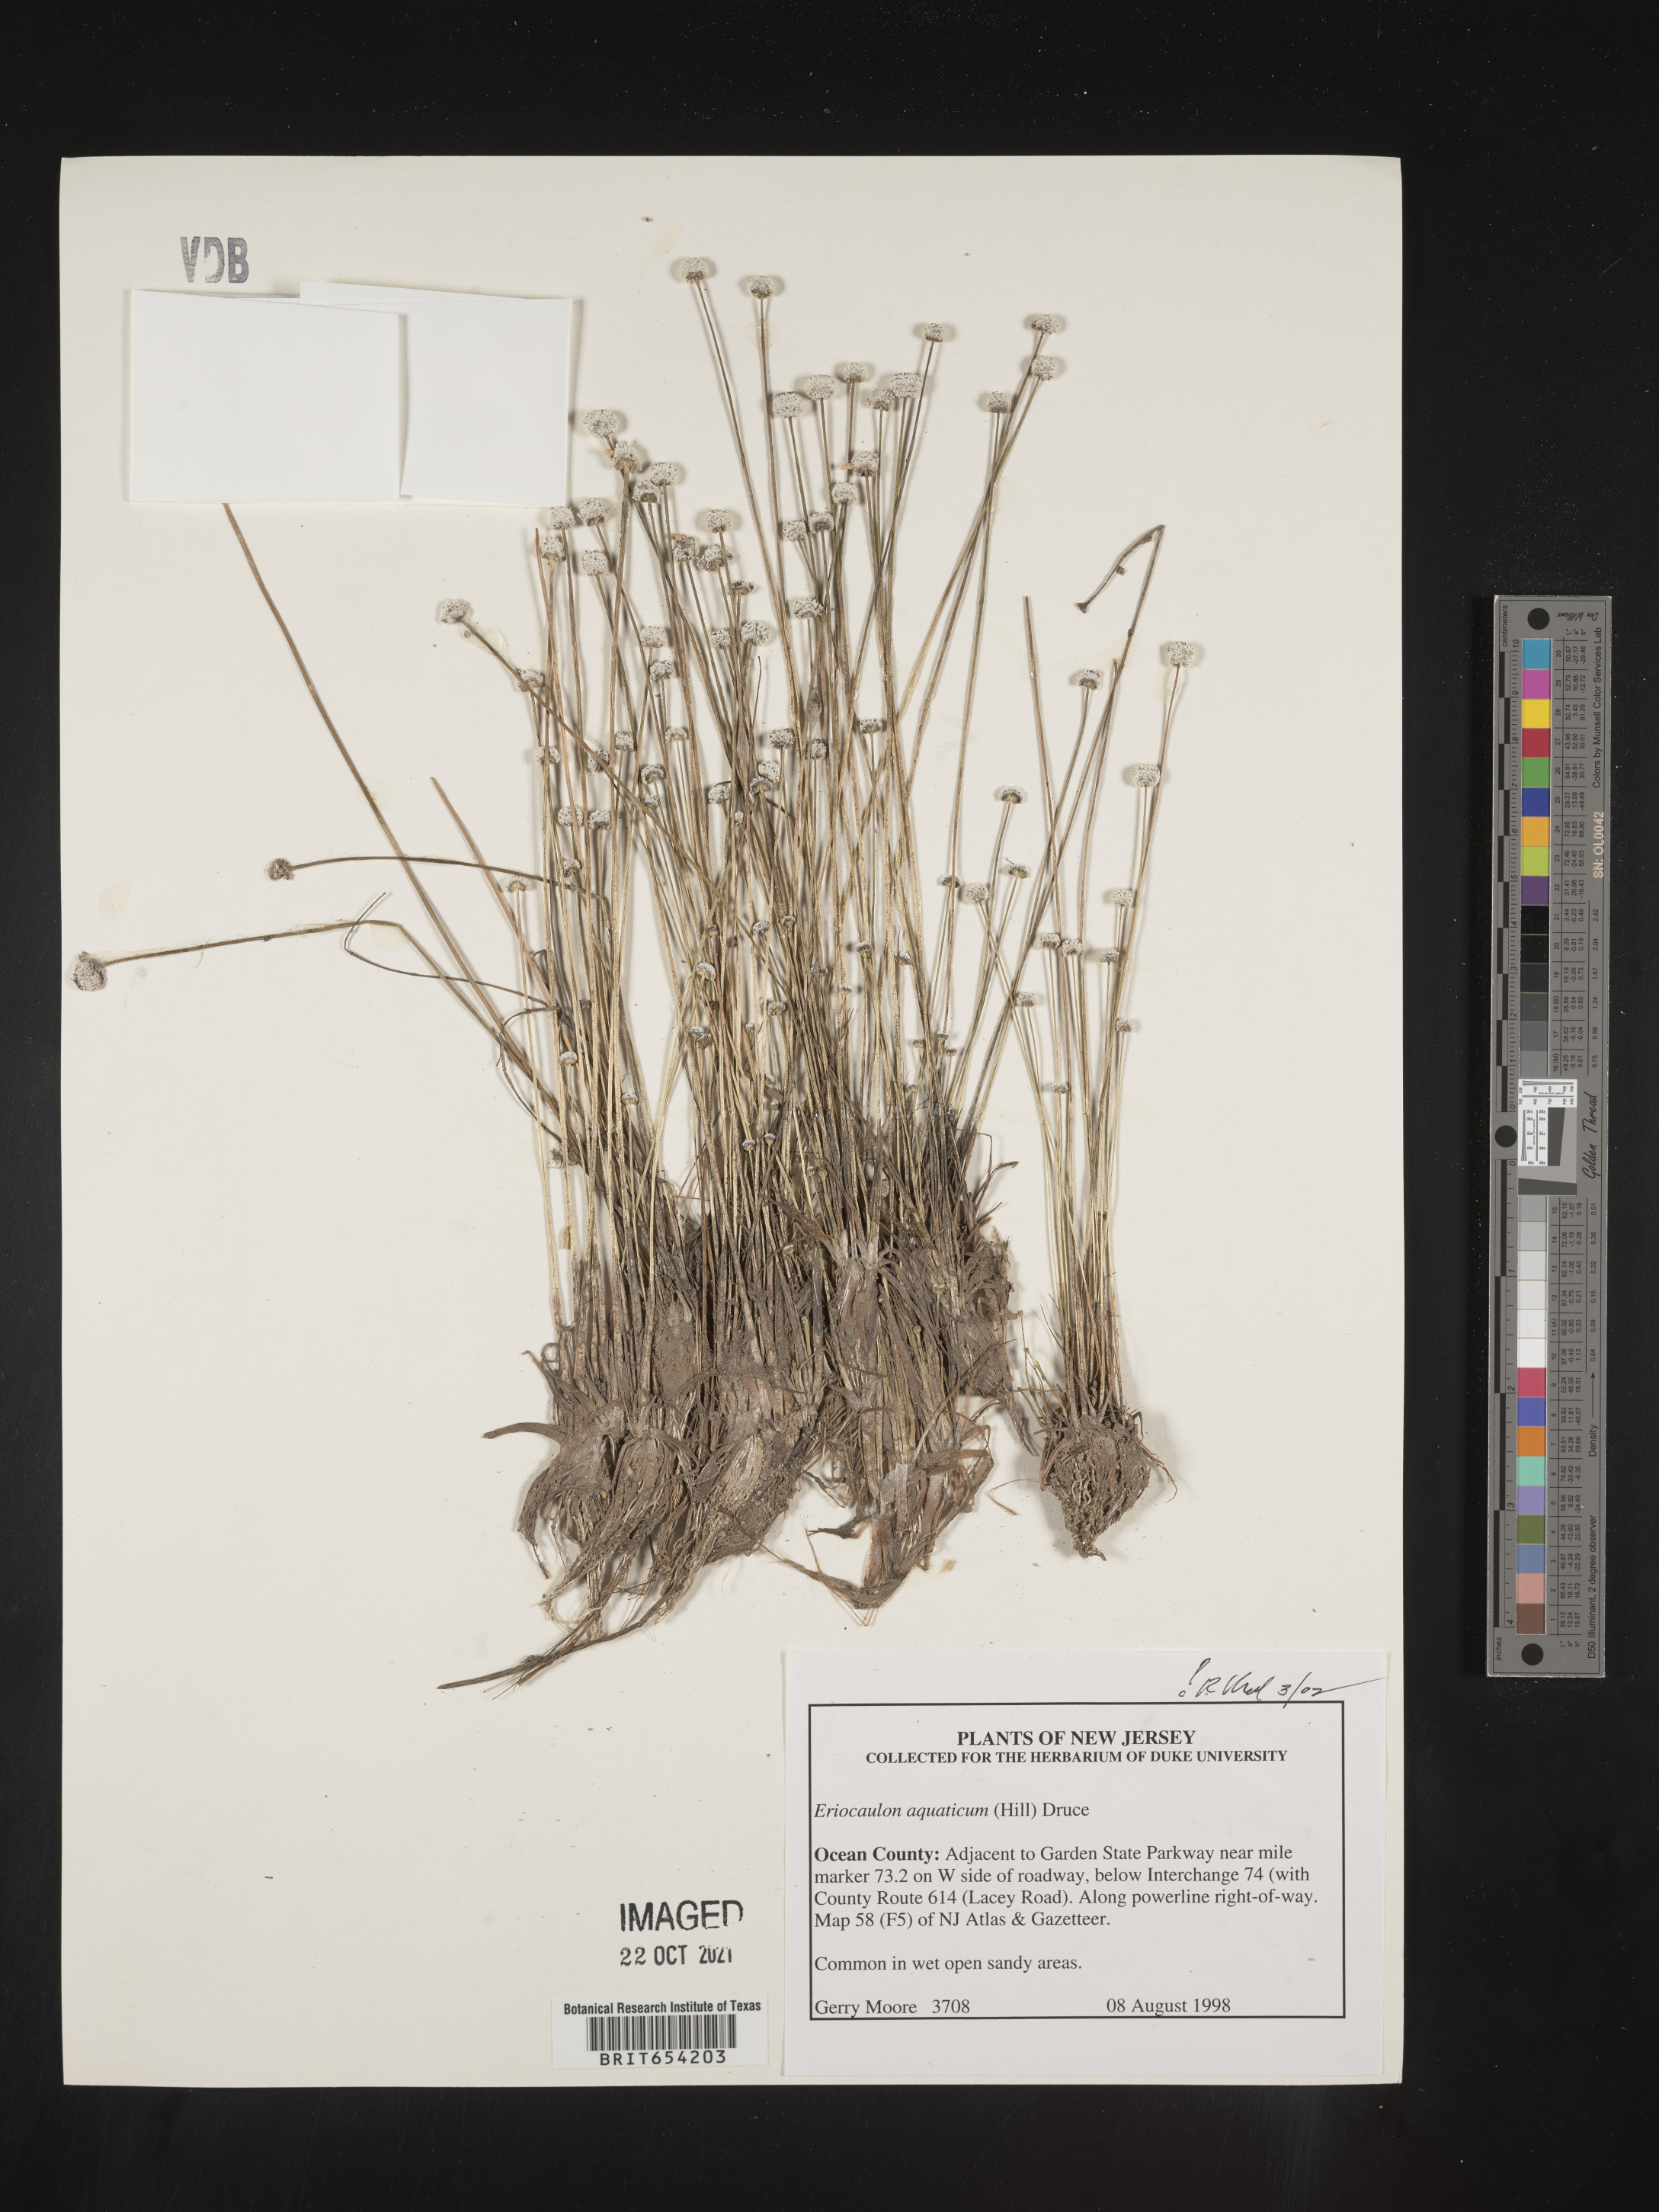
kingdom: Plantae
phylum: Tracheophyta
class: Liliopsida
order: Poales
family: Eriocaulaceae
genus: Eriocaulon
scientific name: Eriocaulon aquaticum
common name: Pipewort
